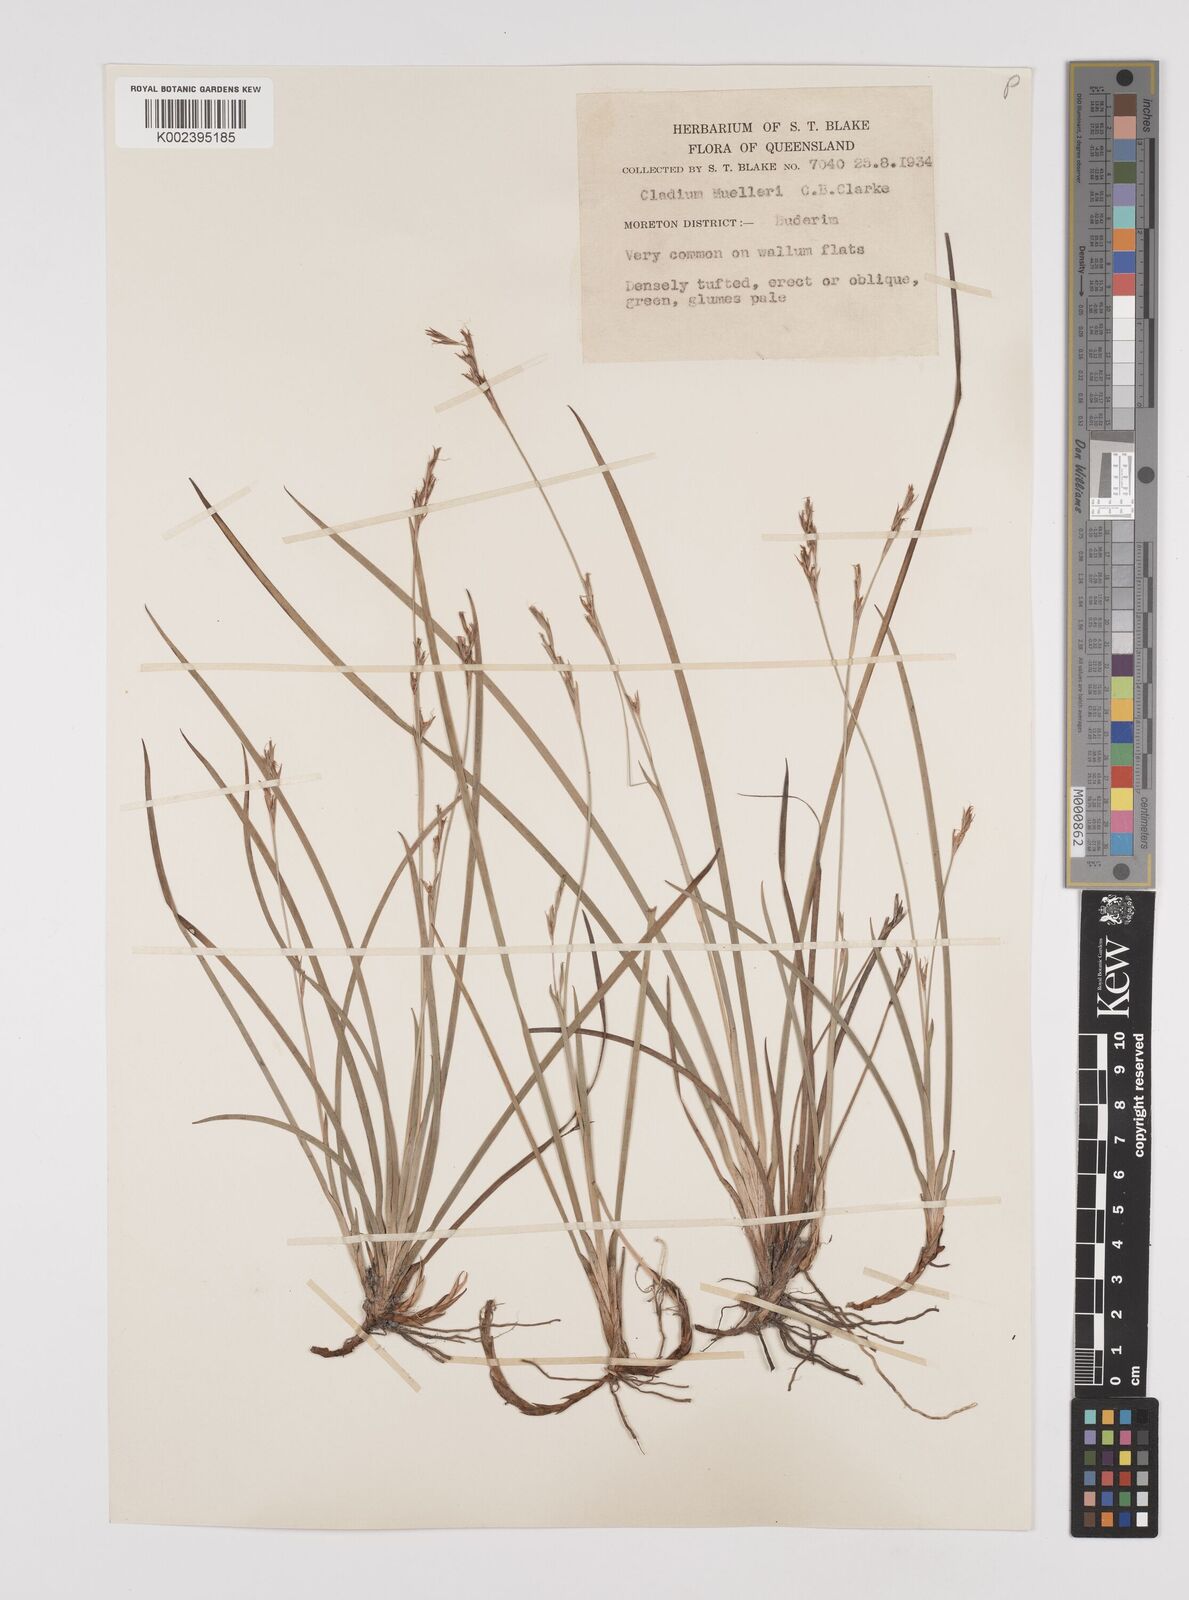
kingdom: Plantae
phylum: Tracheophyta
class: Liliopsida
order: Poales
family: Cyperaceae
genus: Machaerina
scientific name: Machaerina muelleri
